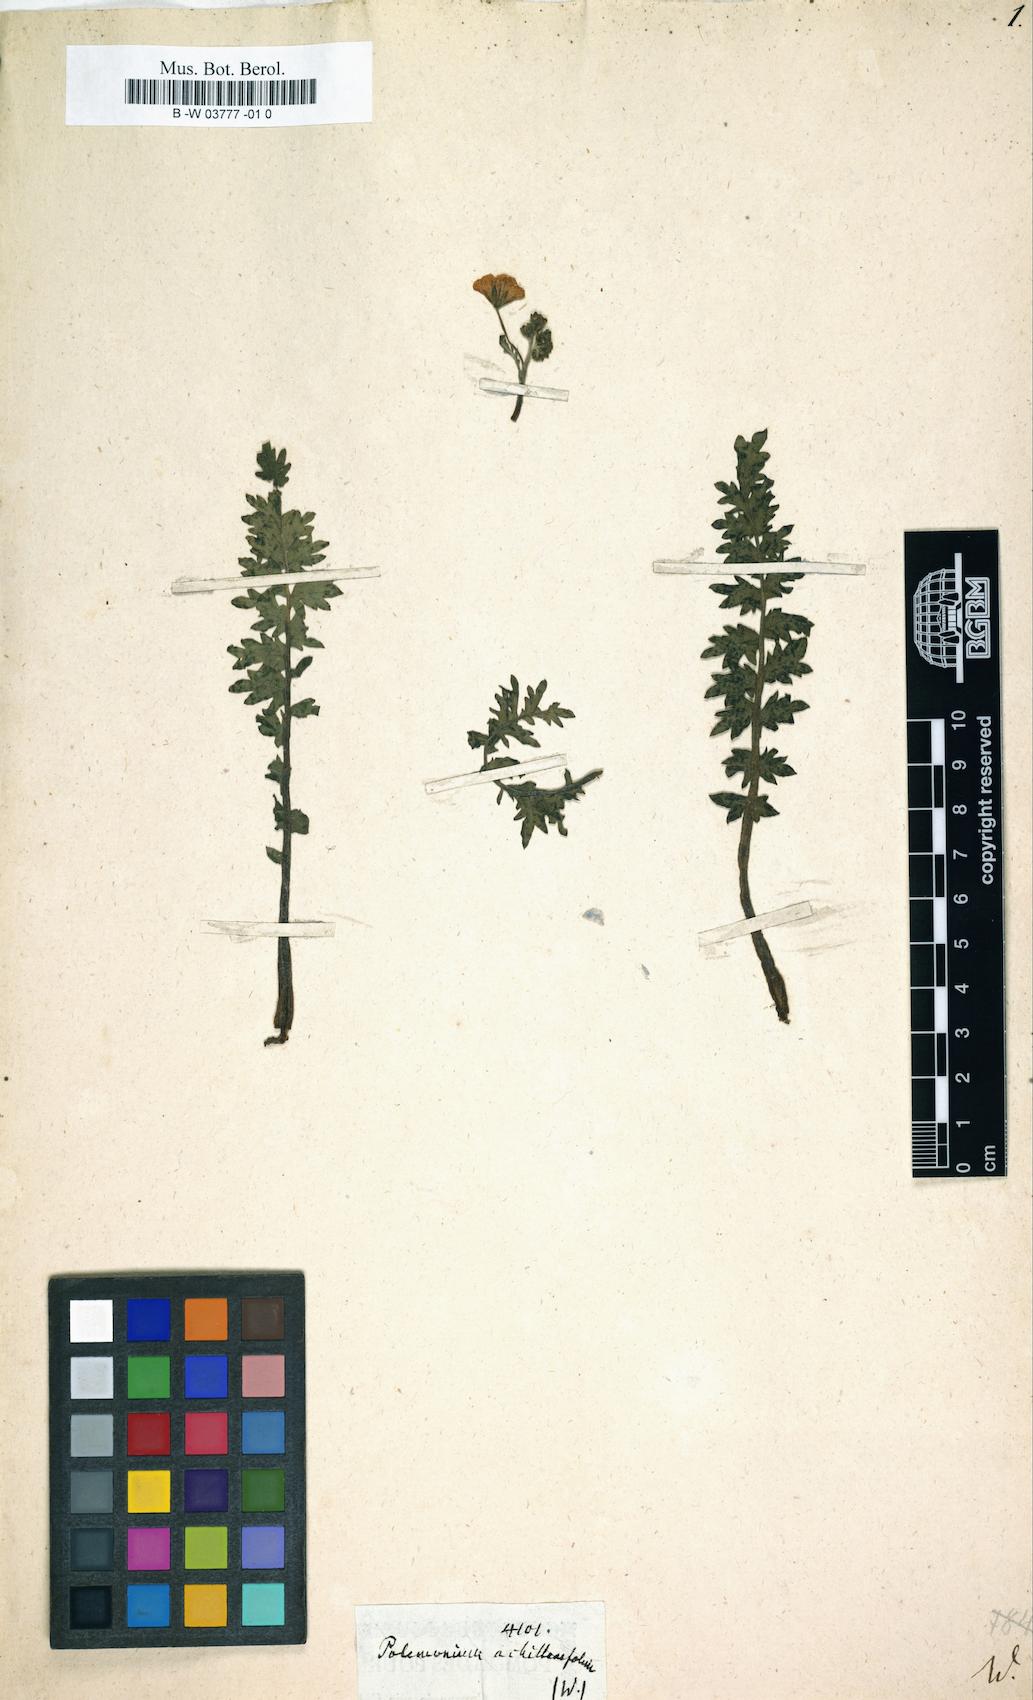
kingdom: Plantae
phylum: Tracheophyta
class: Magnoliopsida
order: Ericales
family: Polemoniaceae
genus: Phlox
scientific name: Phlox gracilis
